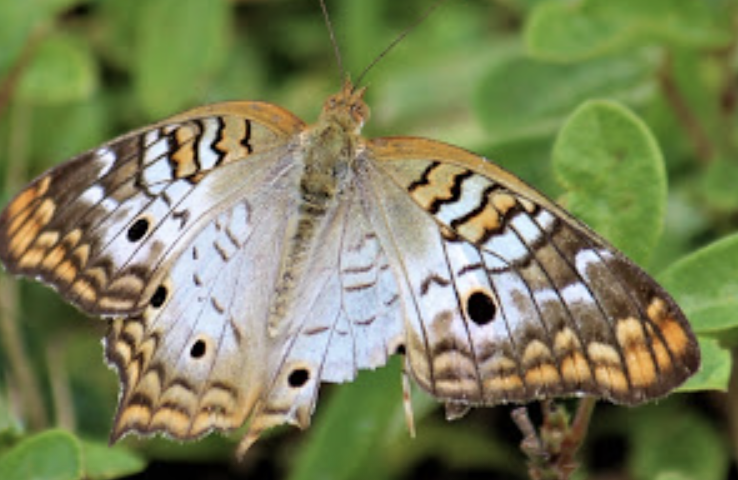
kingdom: Animalia
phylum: Arthropoda
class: Insecta
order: Lepidoptera
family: Nymphalidae
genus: Anartia
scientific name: Anartia jatrophae
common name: White Peacock
